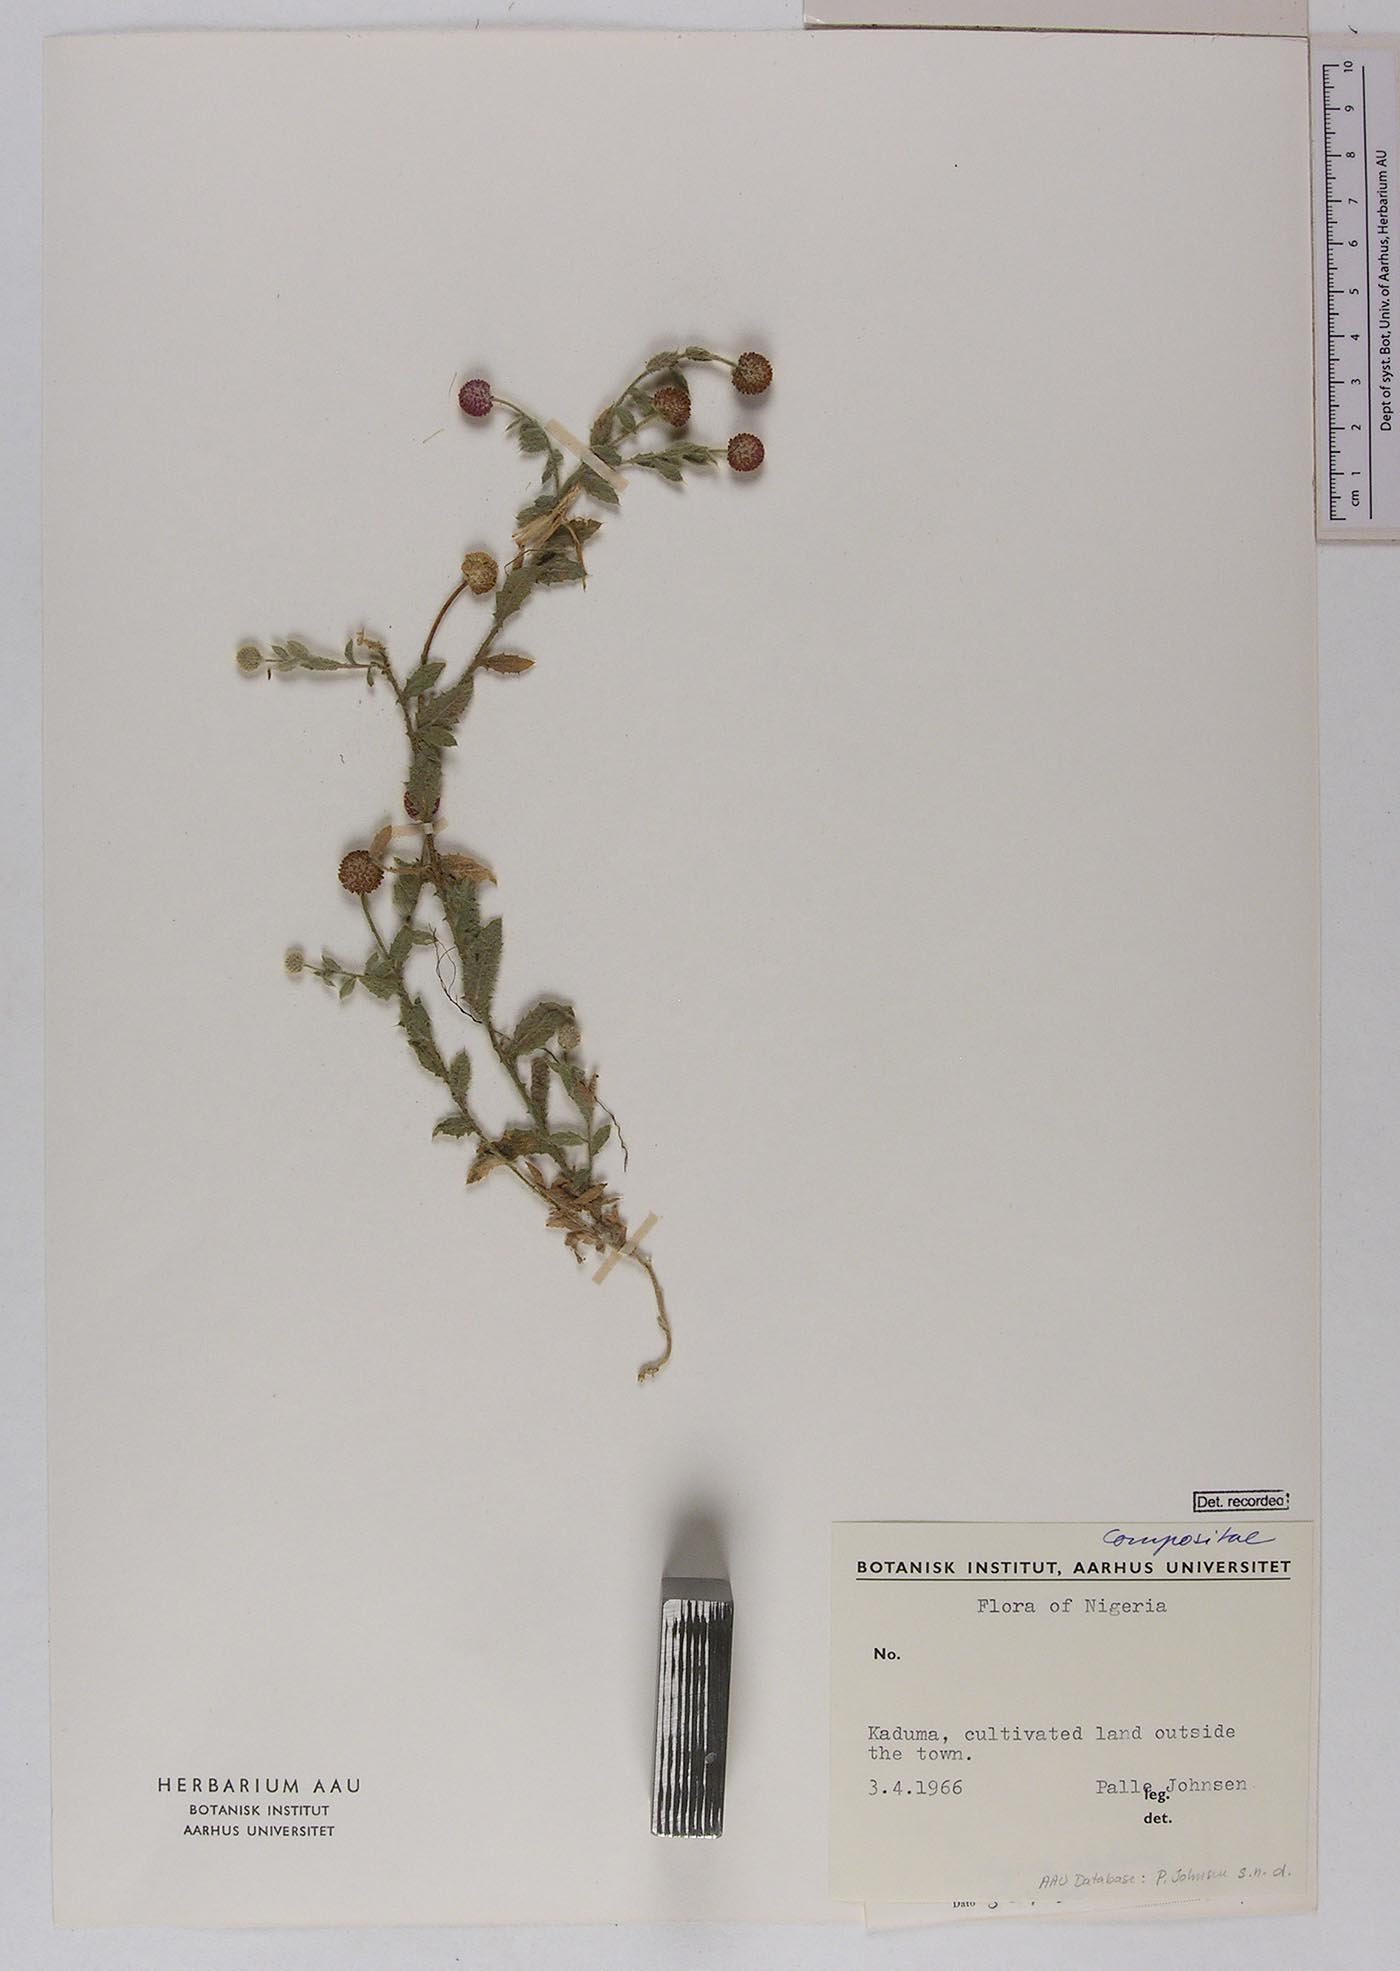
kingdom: Plantae
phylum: Tracheophyta
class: Magnoliopsida
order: Asterales
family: Asteraceae
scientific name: Asteraceae
